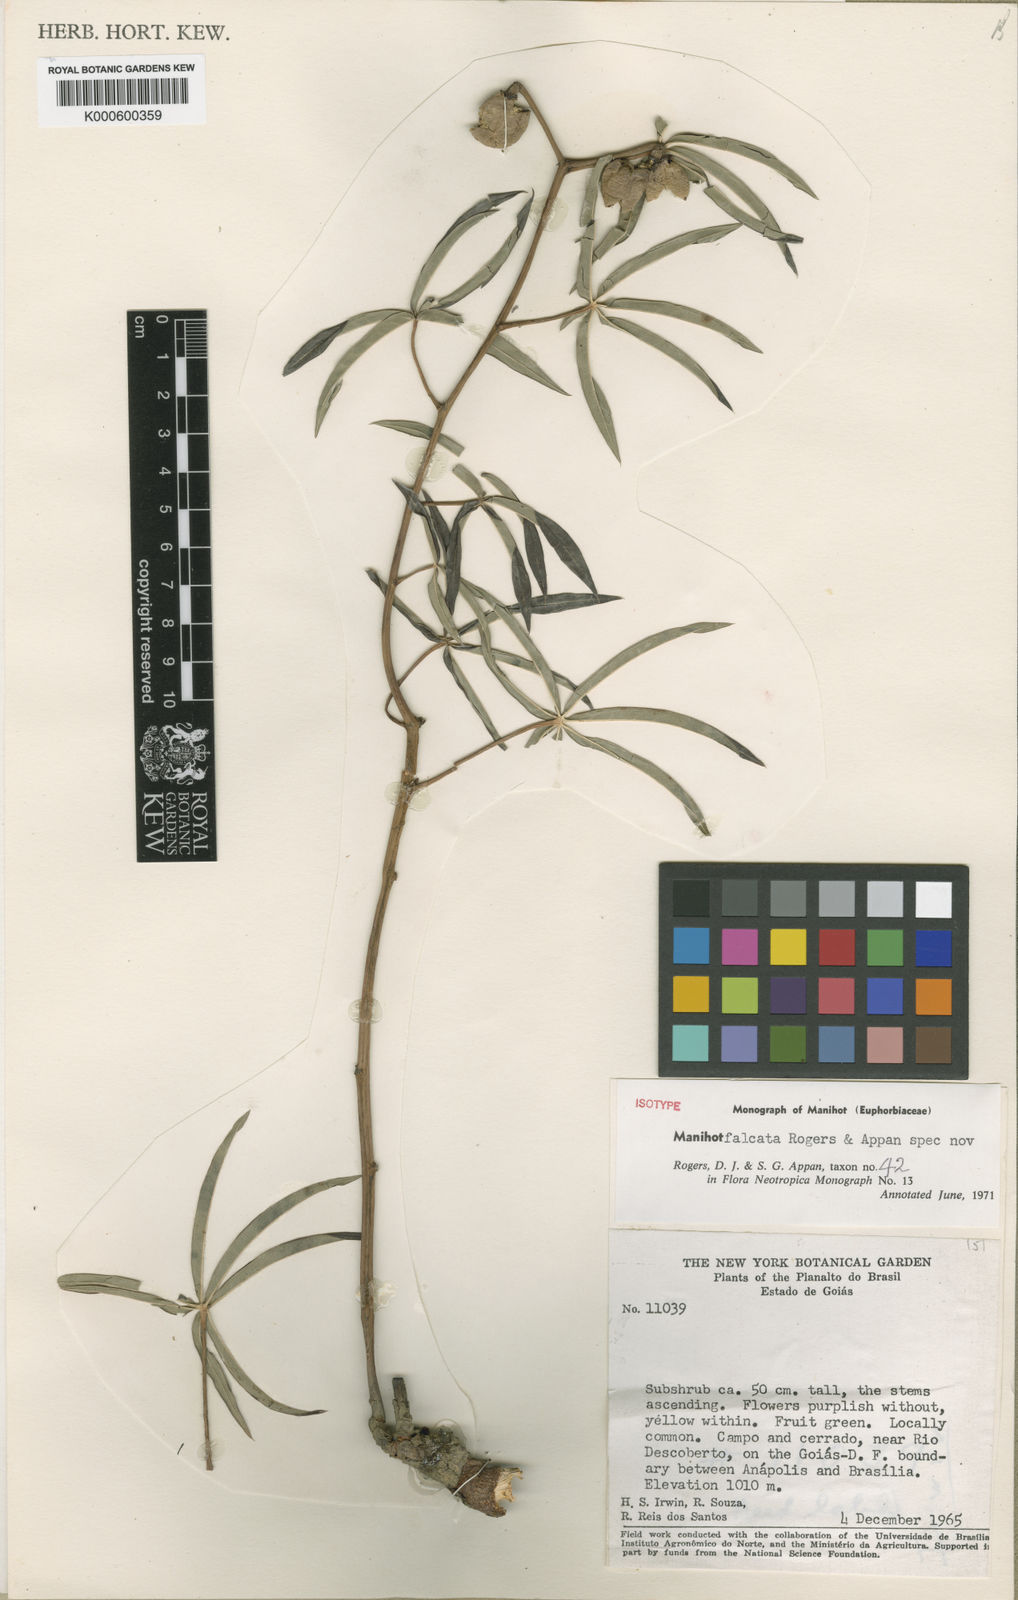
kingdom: Plantae
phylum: Tracheophyta
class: Magnoliopsida
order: Malpighiales
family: Euphorbiaceae
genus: Manihot
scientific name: Manihot falcata
